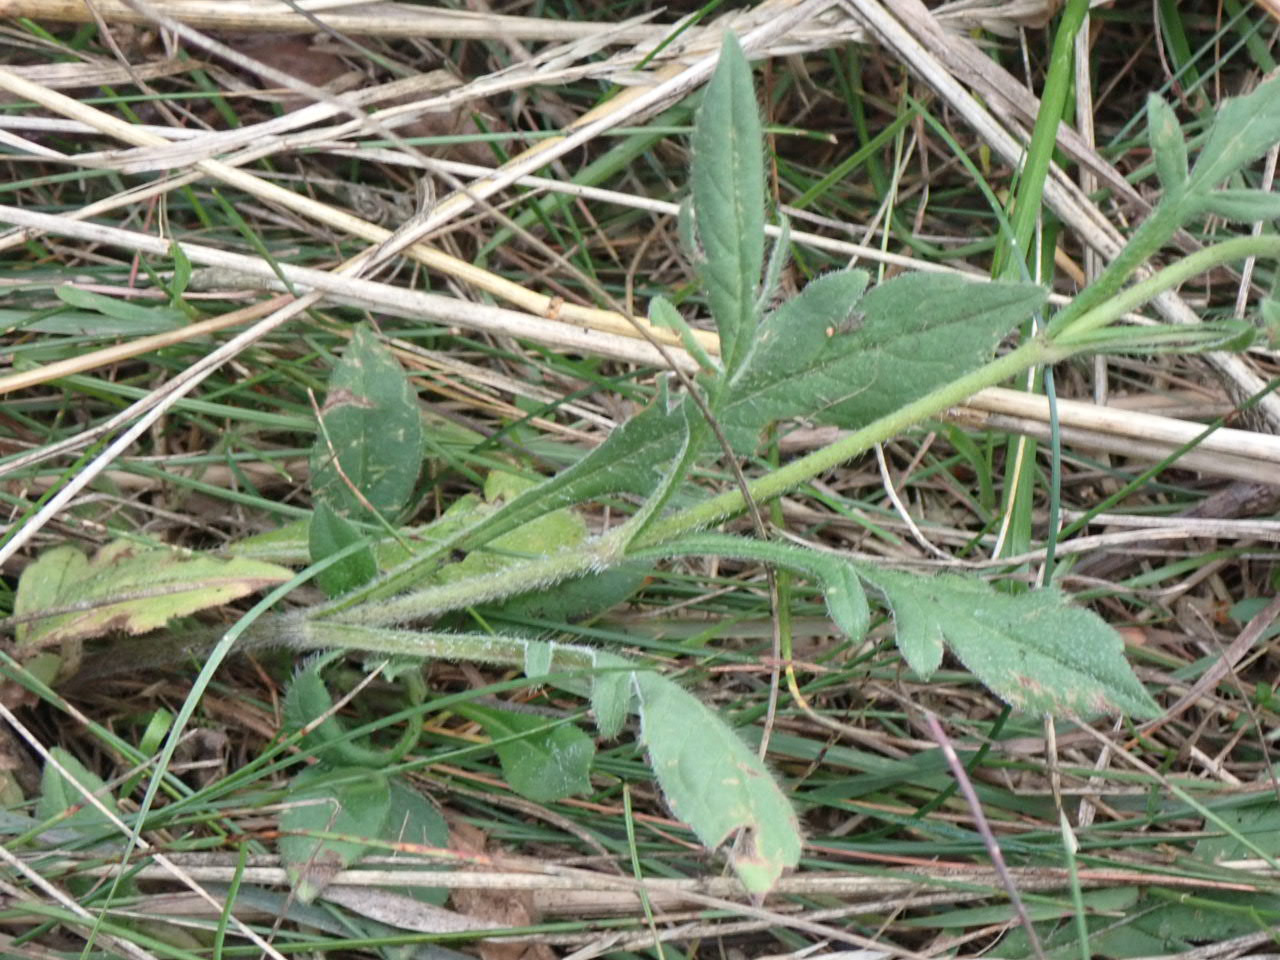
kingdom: Plantae
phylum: Tracheophyta
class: Magnoliopsida
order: Dipsacales
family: Caprifoliaceae
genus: Knautia
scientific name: Knautia arvensis
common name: Blåhat
